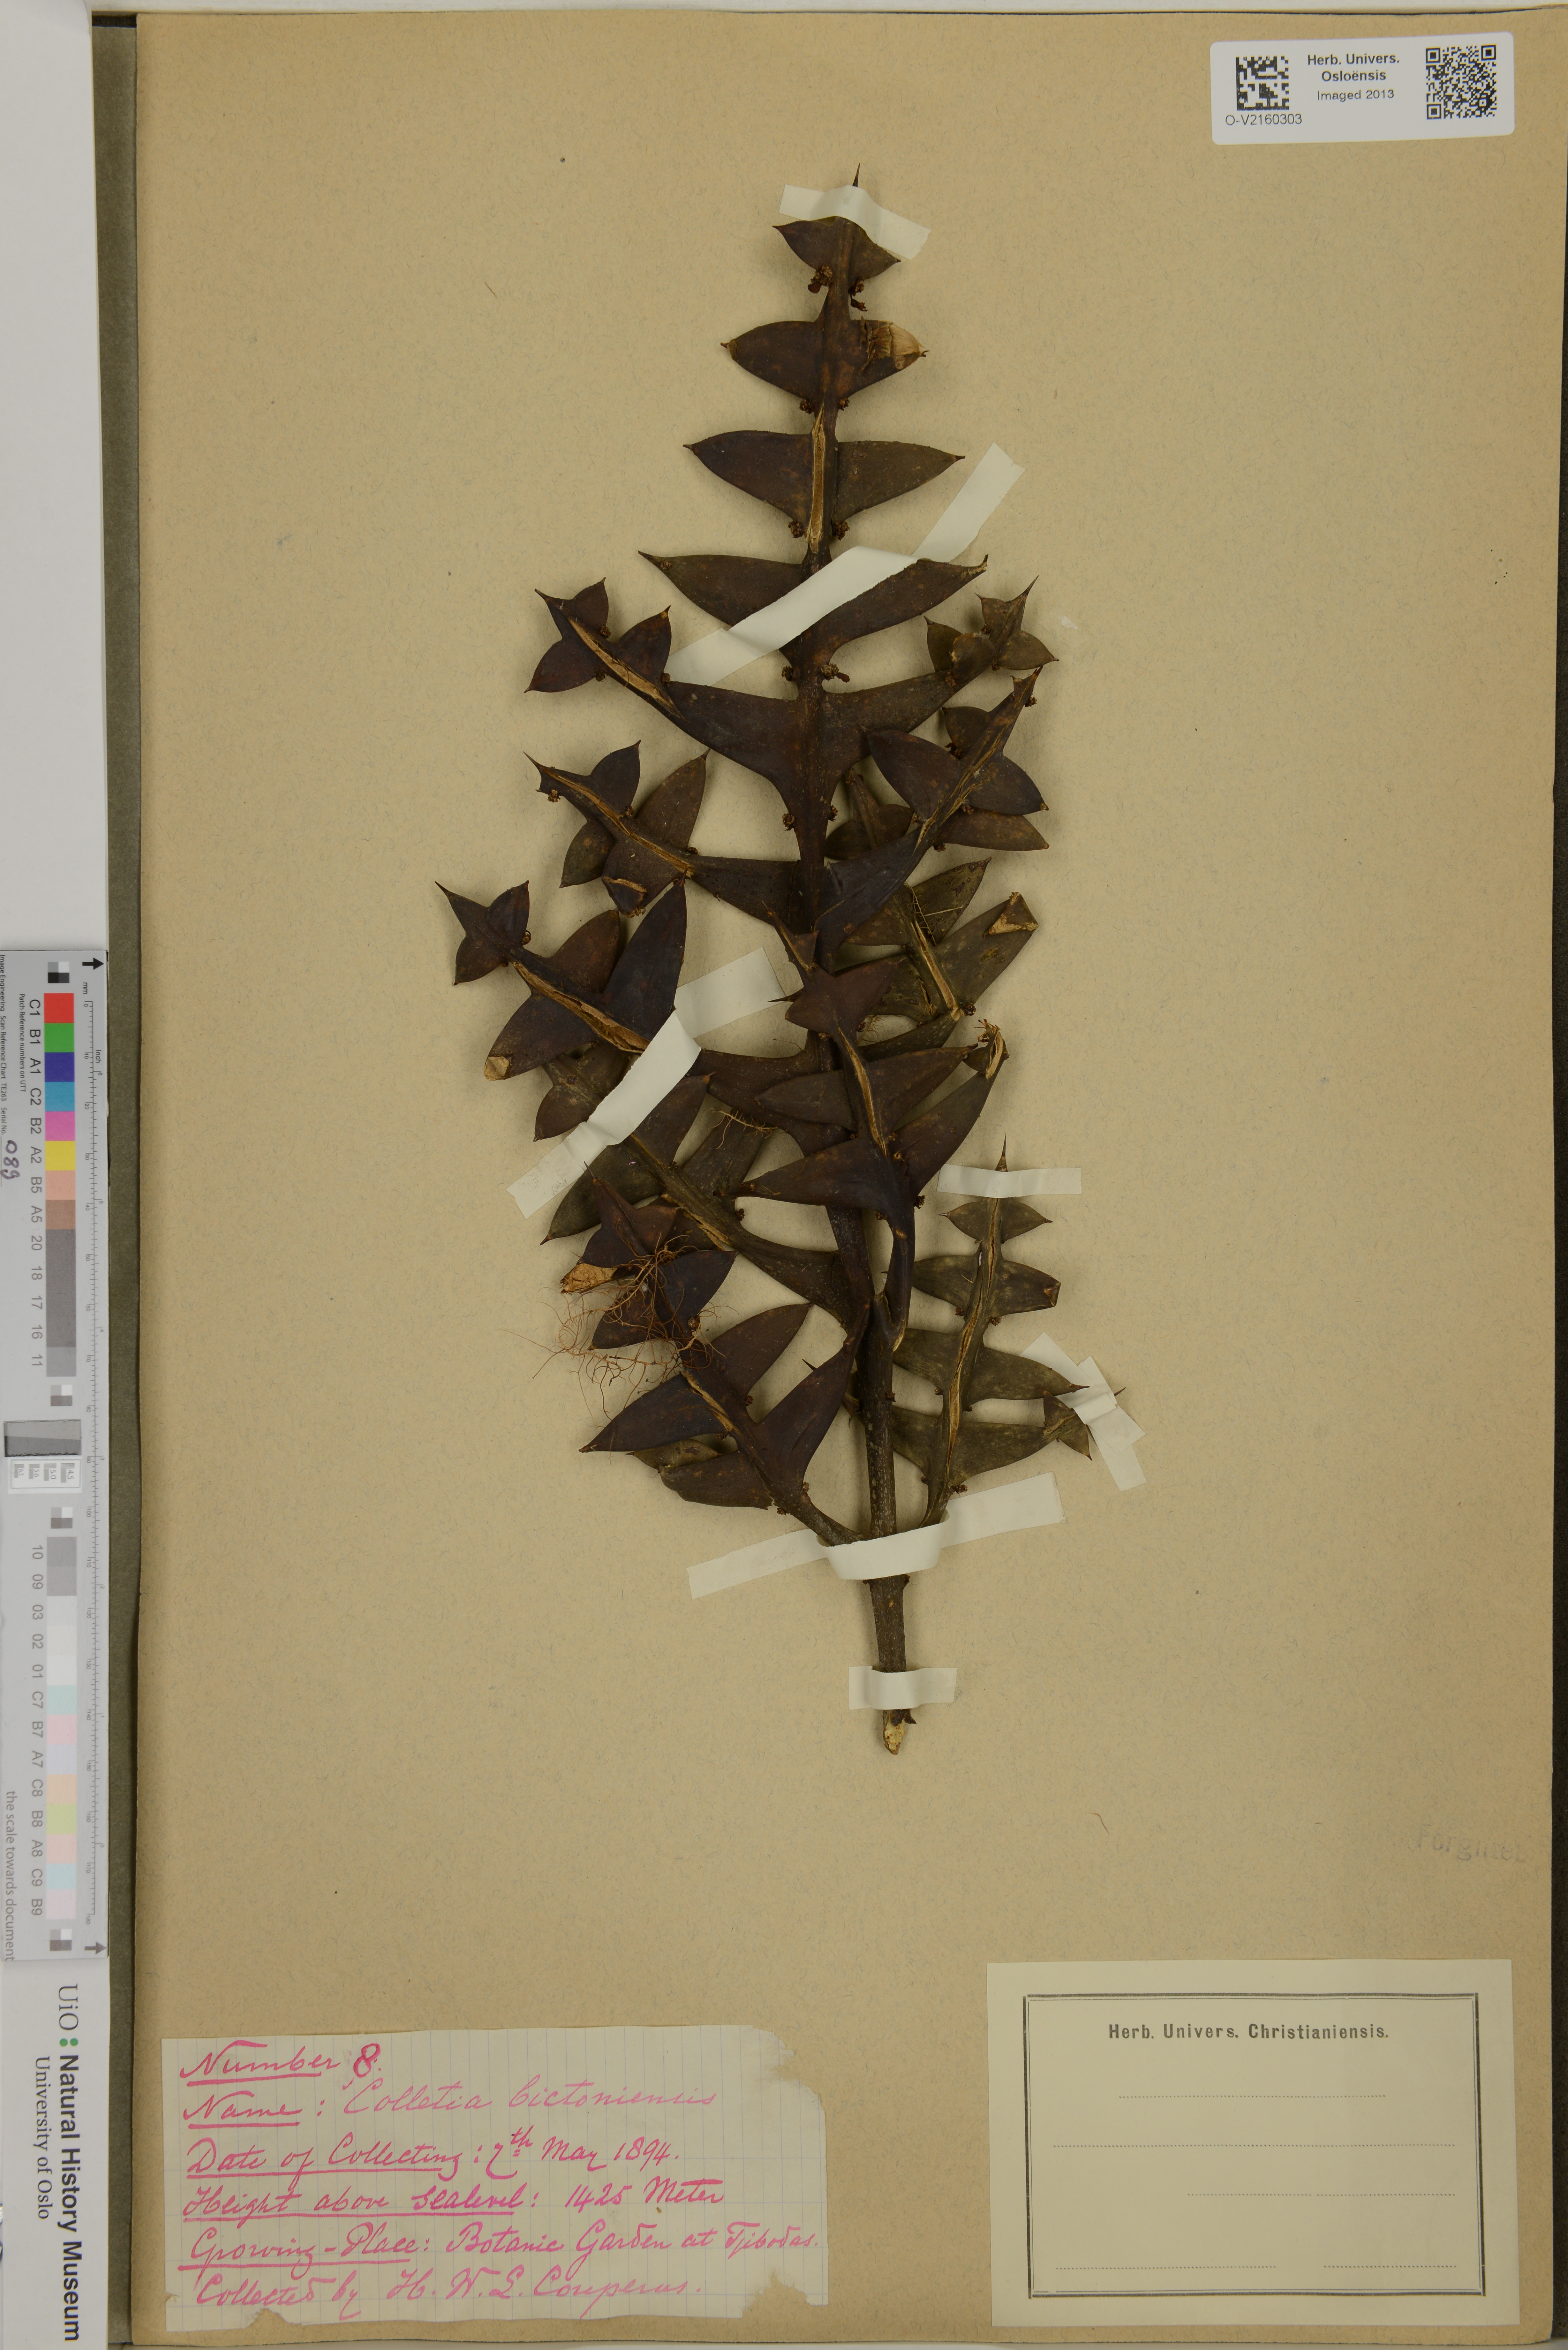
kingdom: Plantae
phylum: Tracheophyta
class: Magnoliopsida
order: Rosales
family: Rhamnaceae
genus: Colletia
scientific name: Colletia paradoxa
